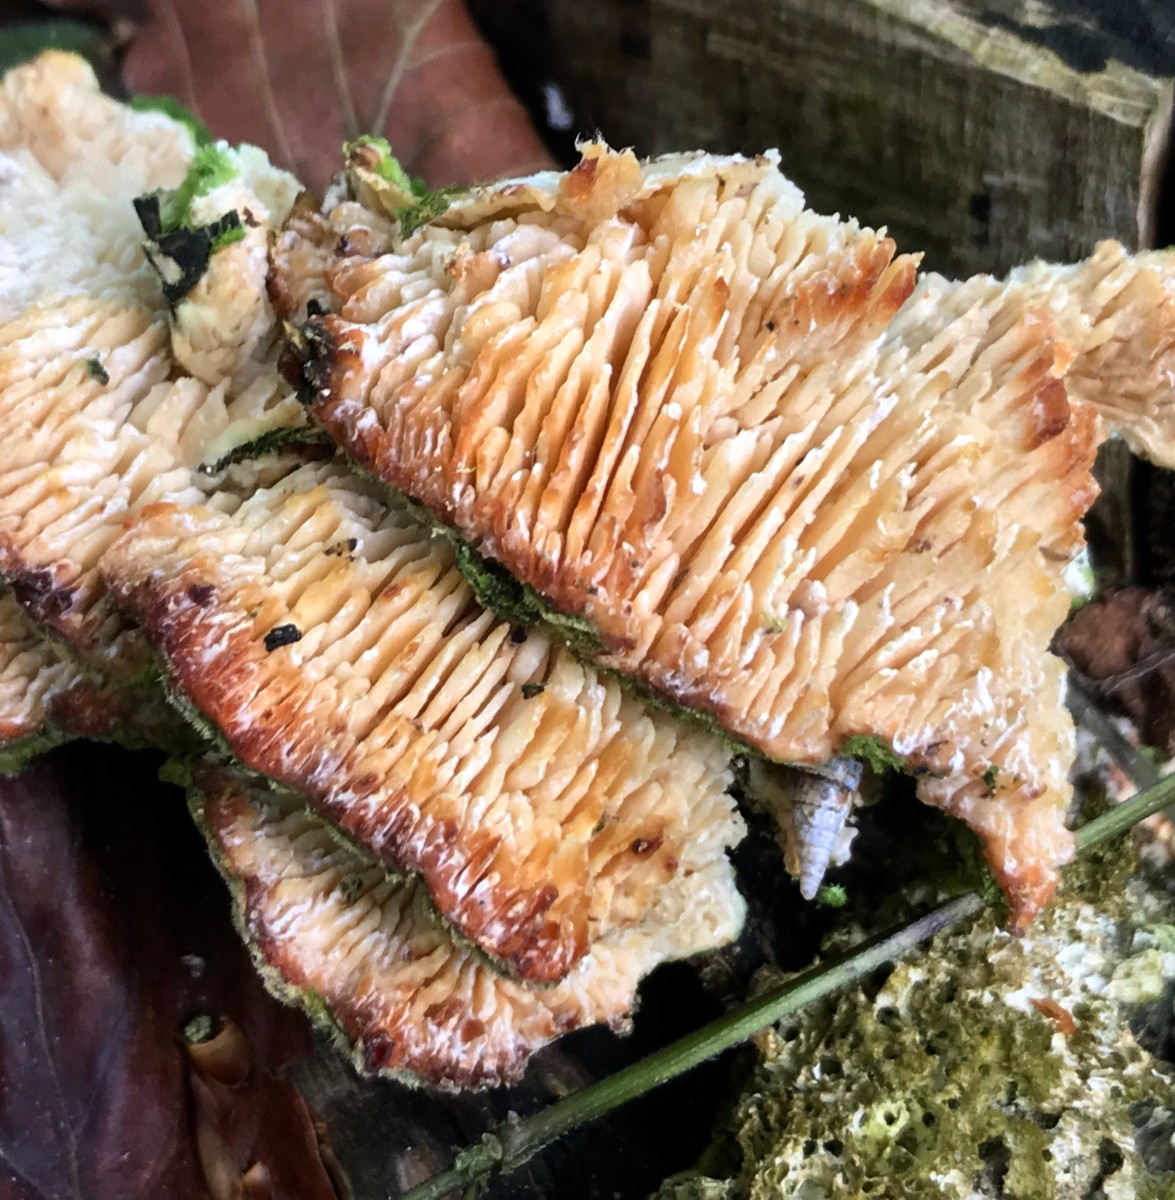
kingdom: Fungi
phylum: Basidiomycota
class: Agaricomycetes
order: Polyporales
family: Polyporaceae
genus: Lenzites
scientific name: Lenzites betulinus
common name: birke-læderporesvamp
